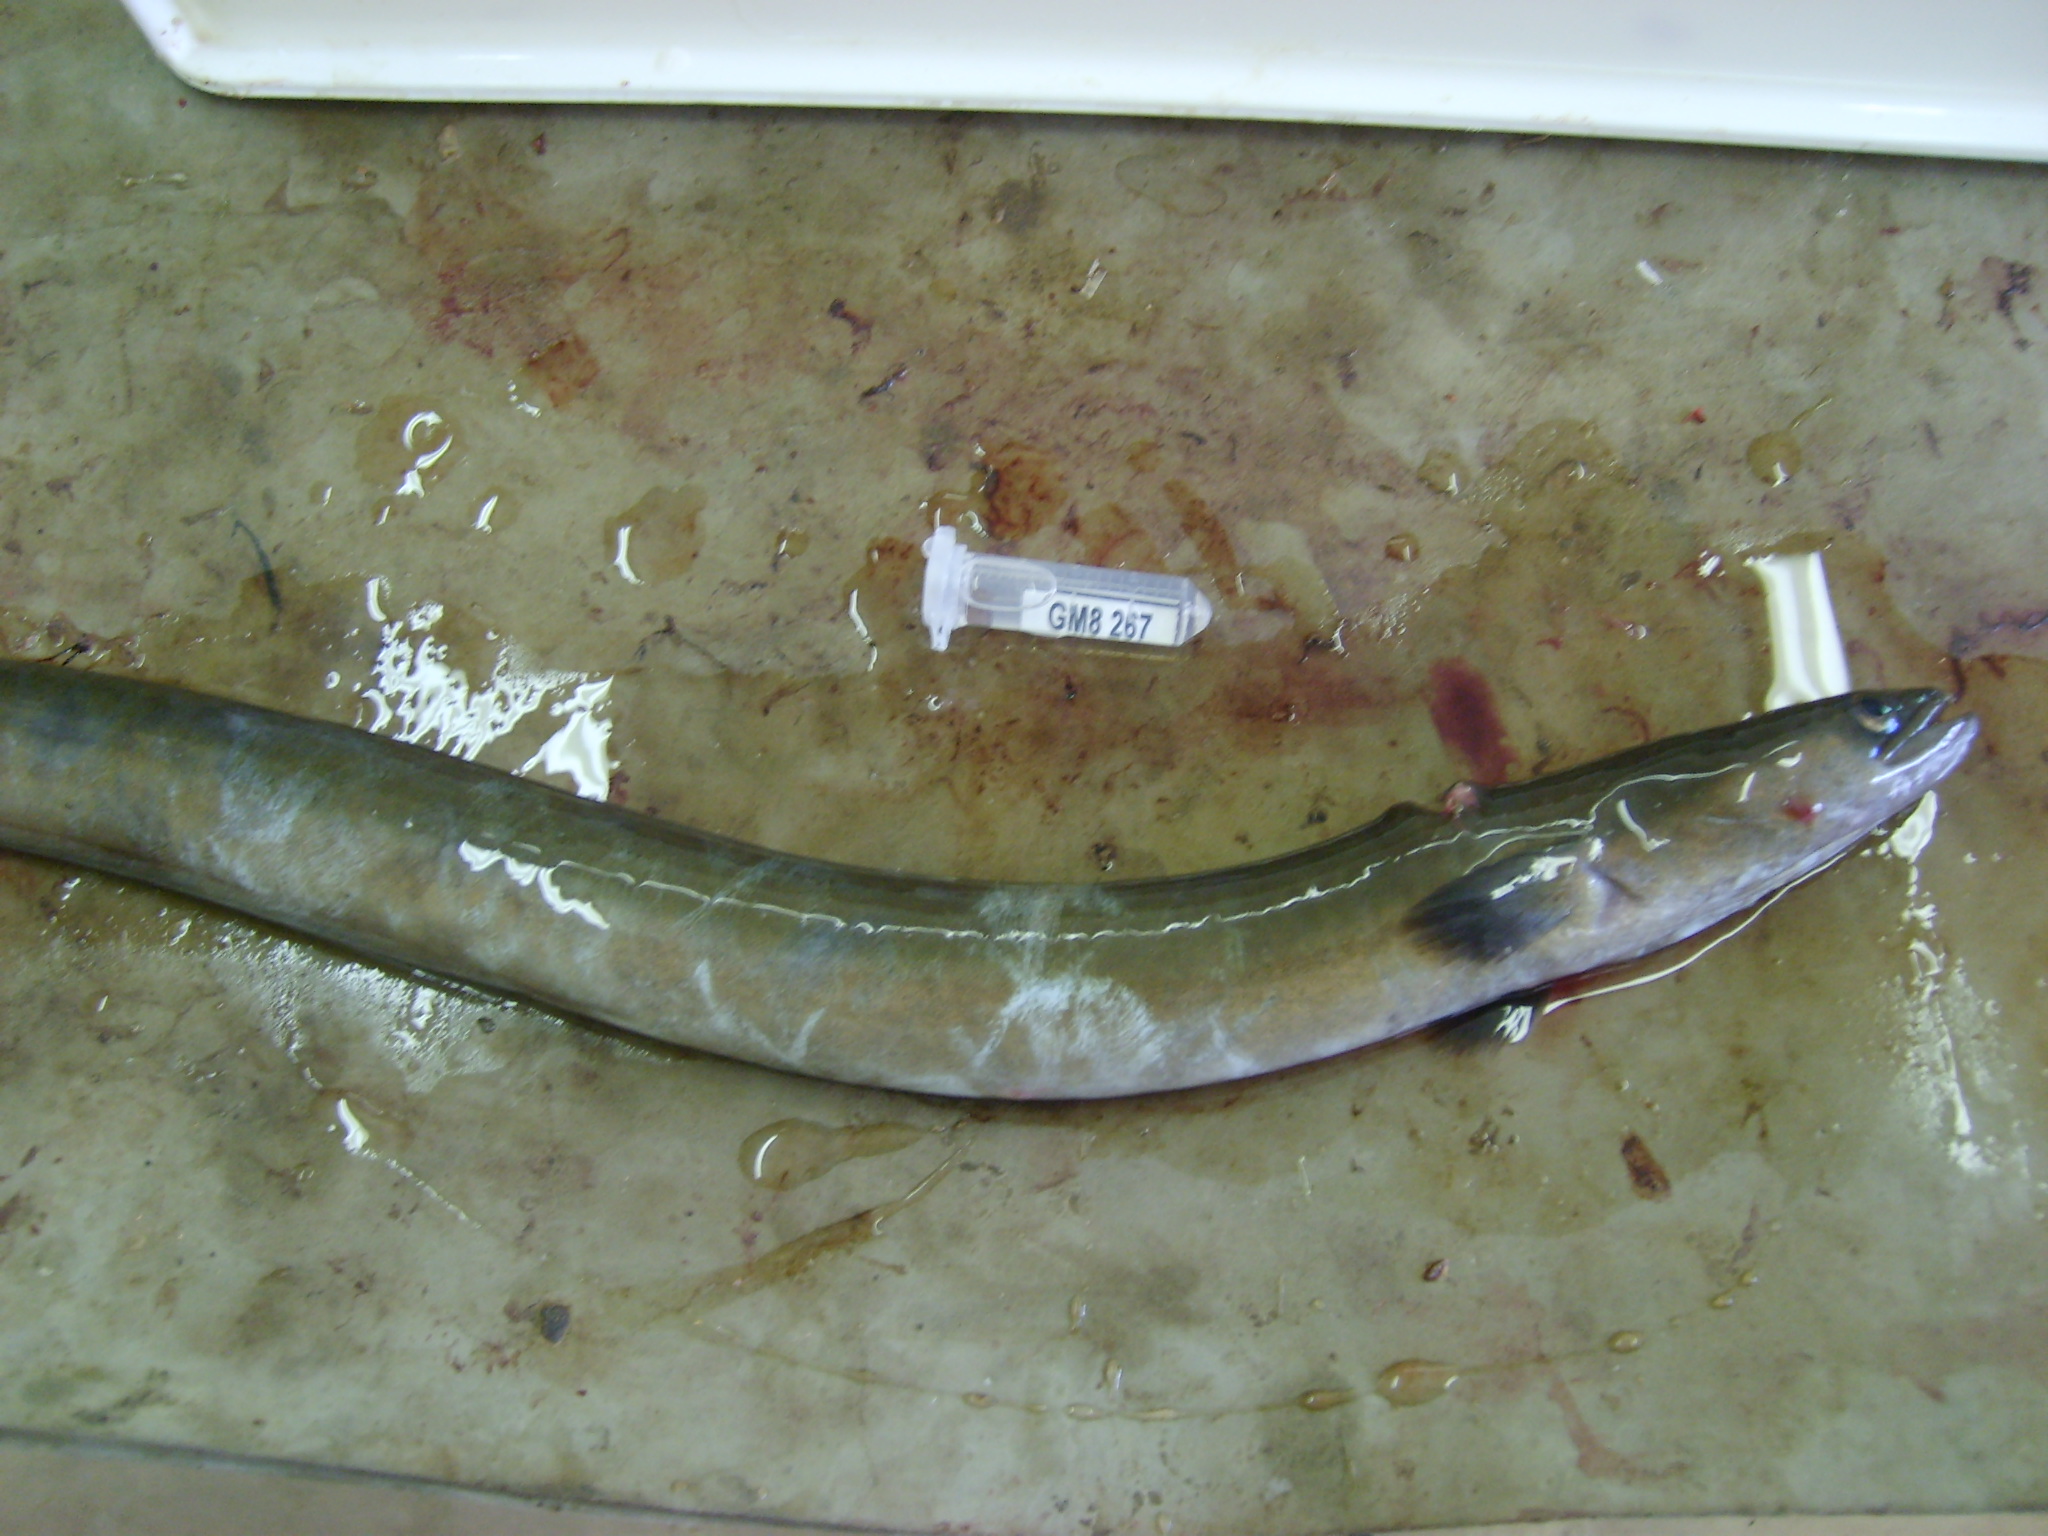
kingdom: Animalia
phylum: Chordata
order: Anguilliformes
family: Anguillidae
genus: Anguilla
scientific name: Anguilla mossambica
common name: African longfin eel
